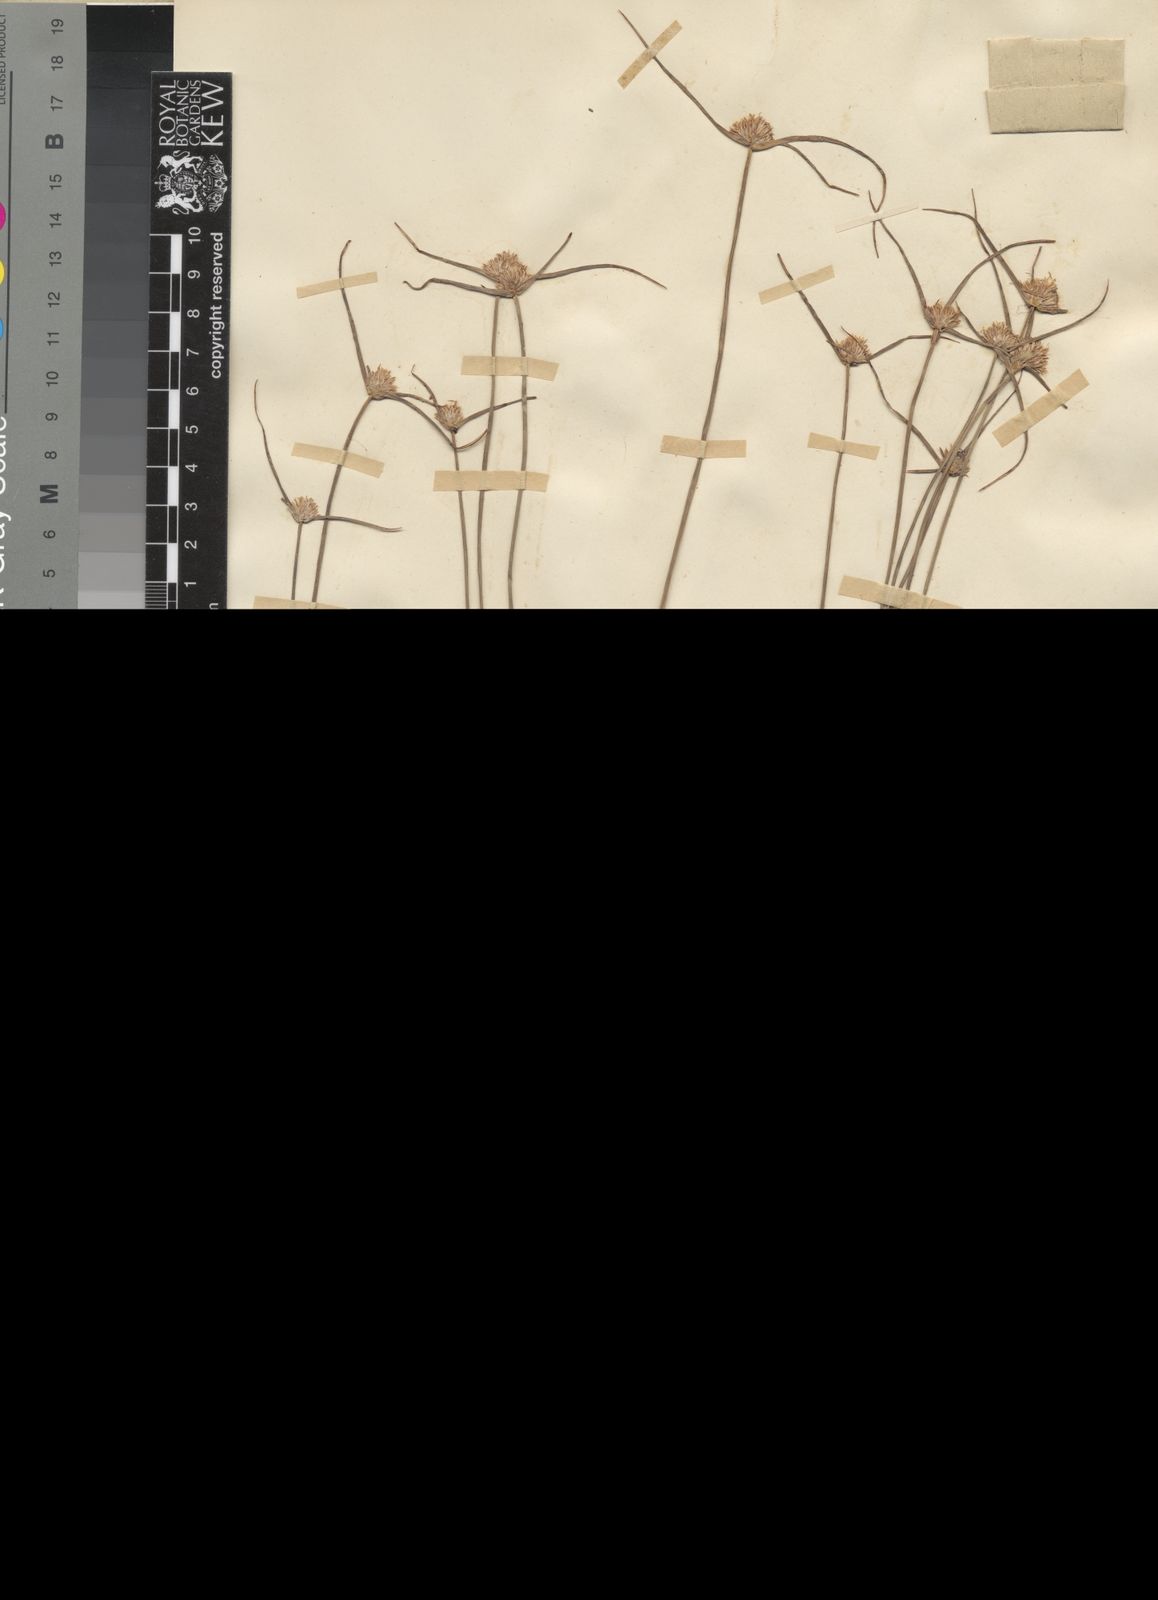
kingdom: Plantae
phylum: Tracheophyta
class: Liliopsida
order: Poales
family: Cyperaceae
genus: Cyperus
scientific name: Cyperus mollipes
